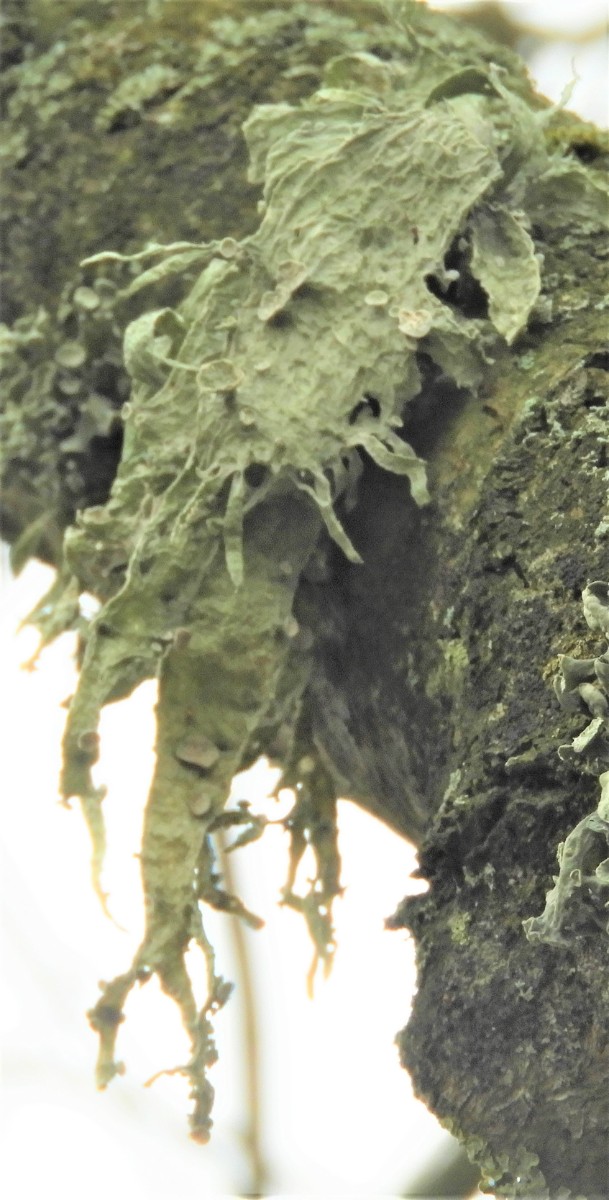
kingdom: Fungi
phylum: Ascomycota
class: Lecanoromycetes
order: Lecanorales
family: Ramalinaceae
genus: Ramalina
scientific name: Ramalina fraxinea
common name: stor grenlav
